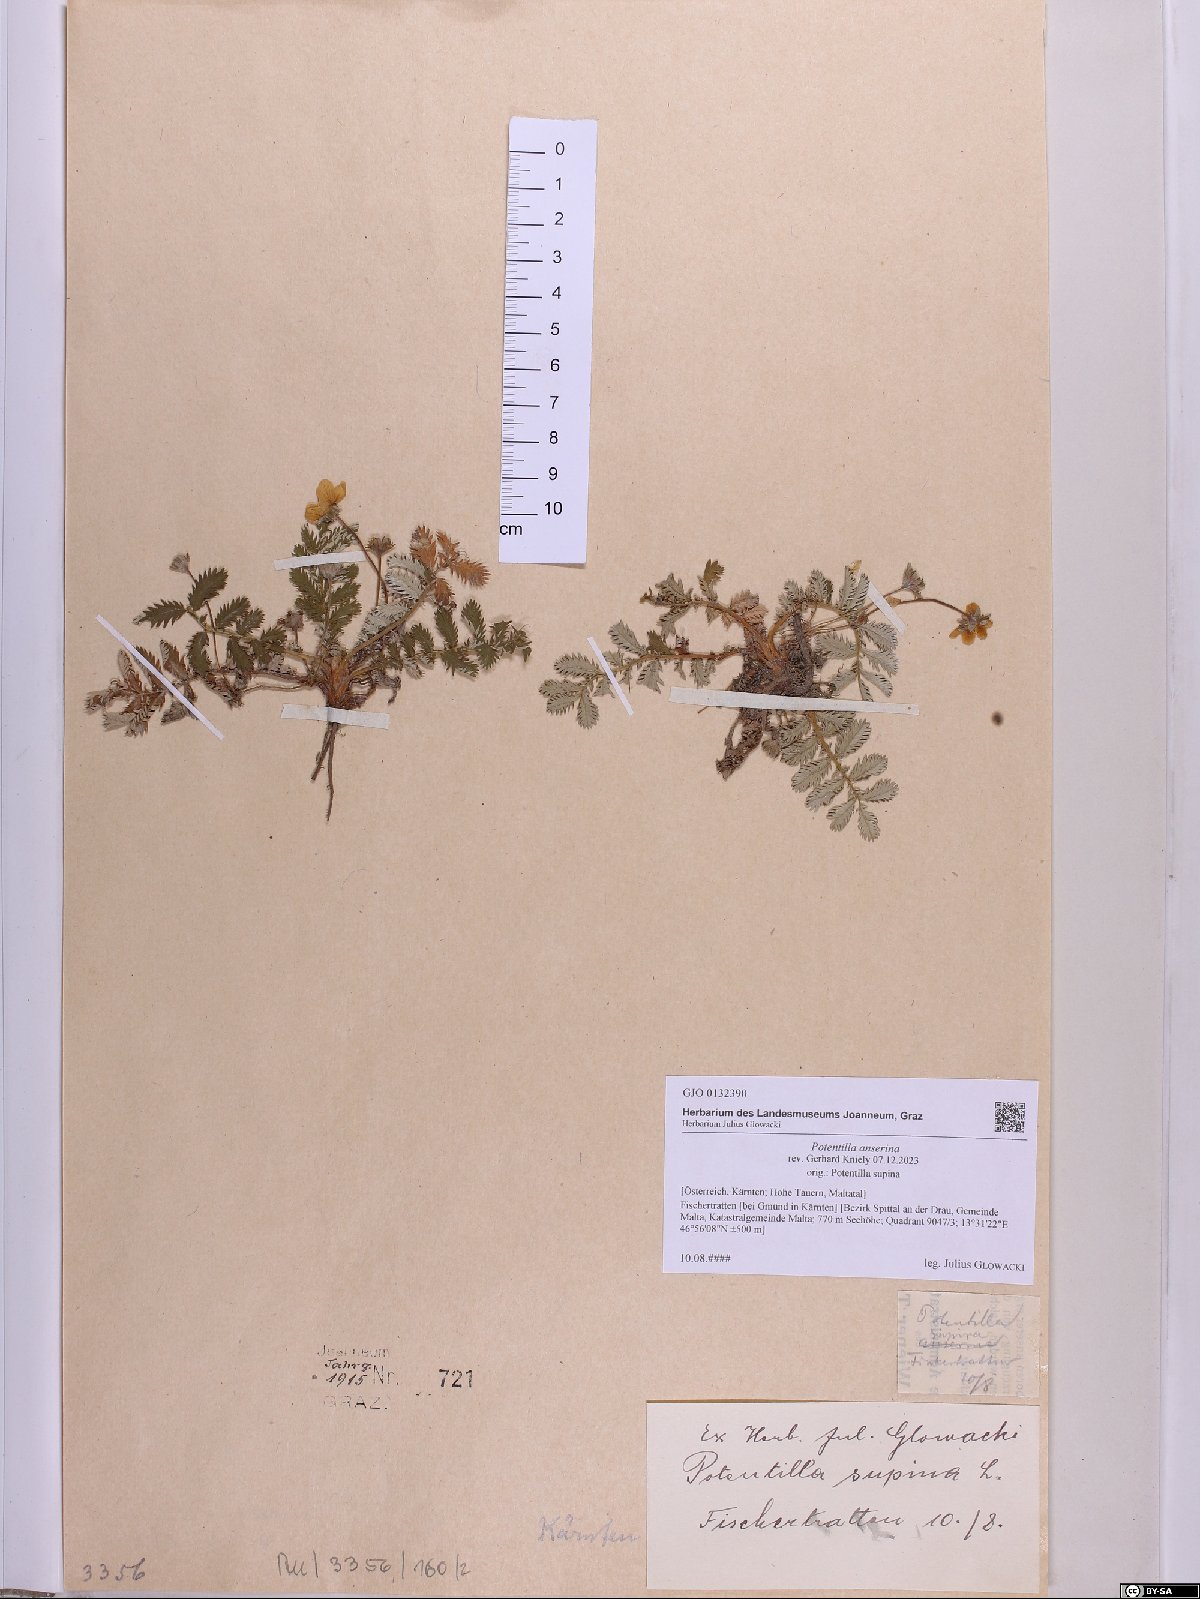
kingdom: Plantae
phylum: Tracheophyta
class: Magnoliopsida
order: Rosales
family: Rosaceae
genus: Argentina
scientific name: Argentina anserina
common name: Common silverweed
